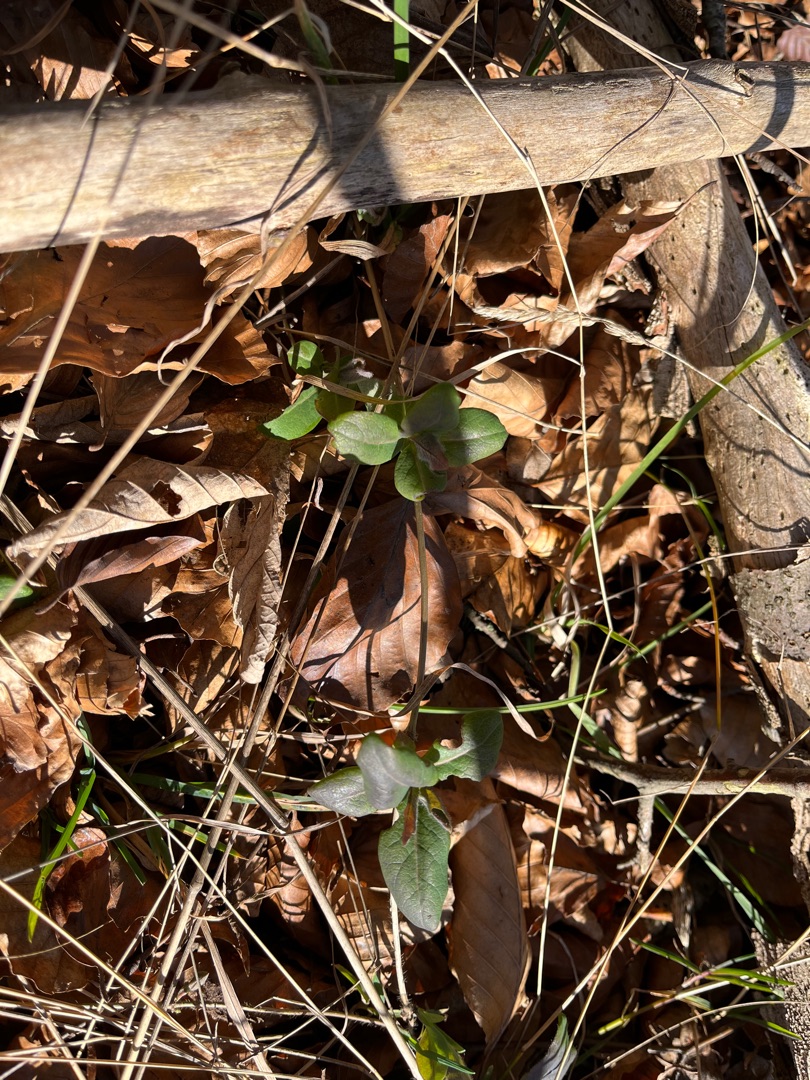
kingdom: Plantae
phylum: Tracheophyta
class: Magnoliopsida
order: Dipsacales
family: Caprifoliaceae
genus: Lonicera
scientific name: Lonicera periclymenum
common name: Almindelig gedeblad
